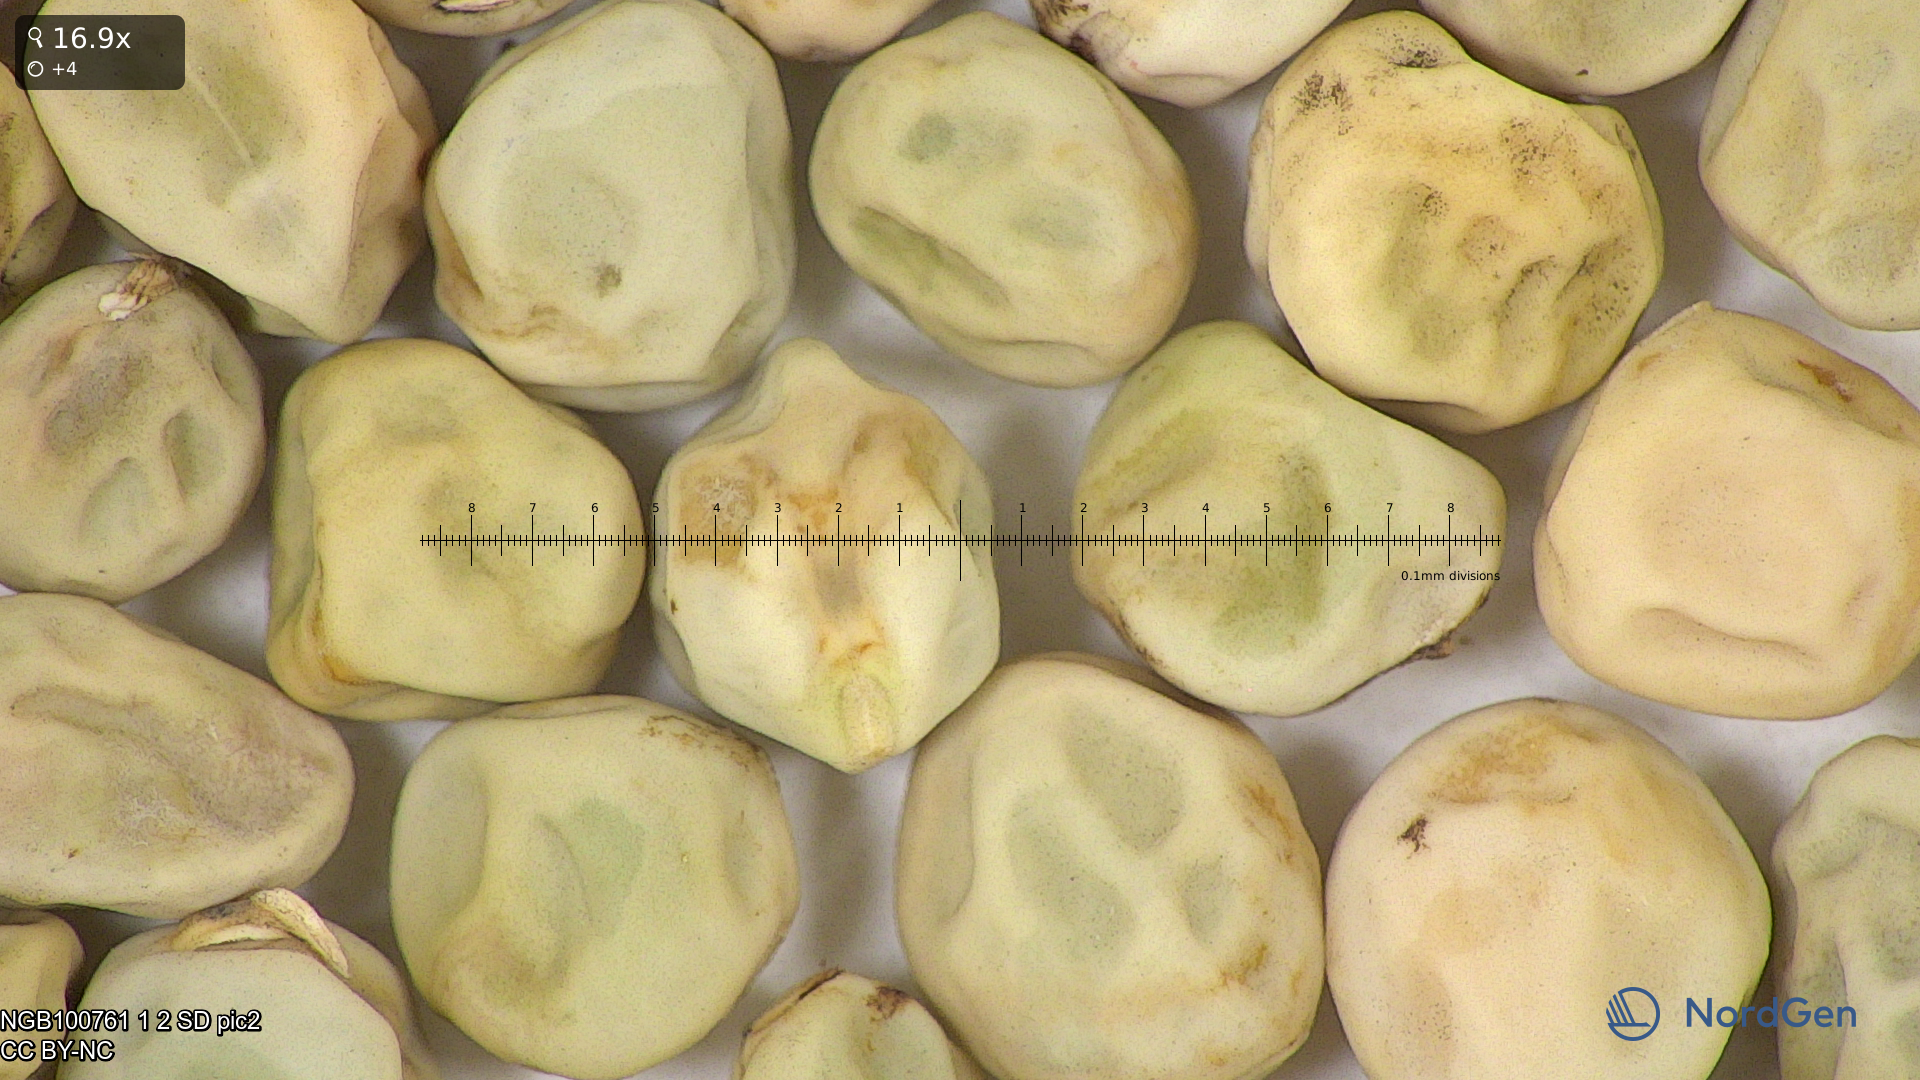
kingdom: Plantae
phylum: Tracheophyta
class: Magnoliopsida
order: Fabales
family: Fabaceae
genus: Lathyrus
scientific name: Lathyrus oleraceus
